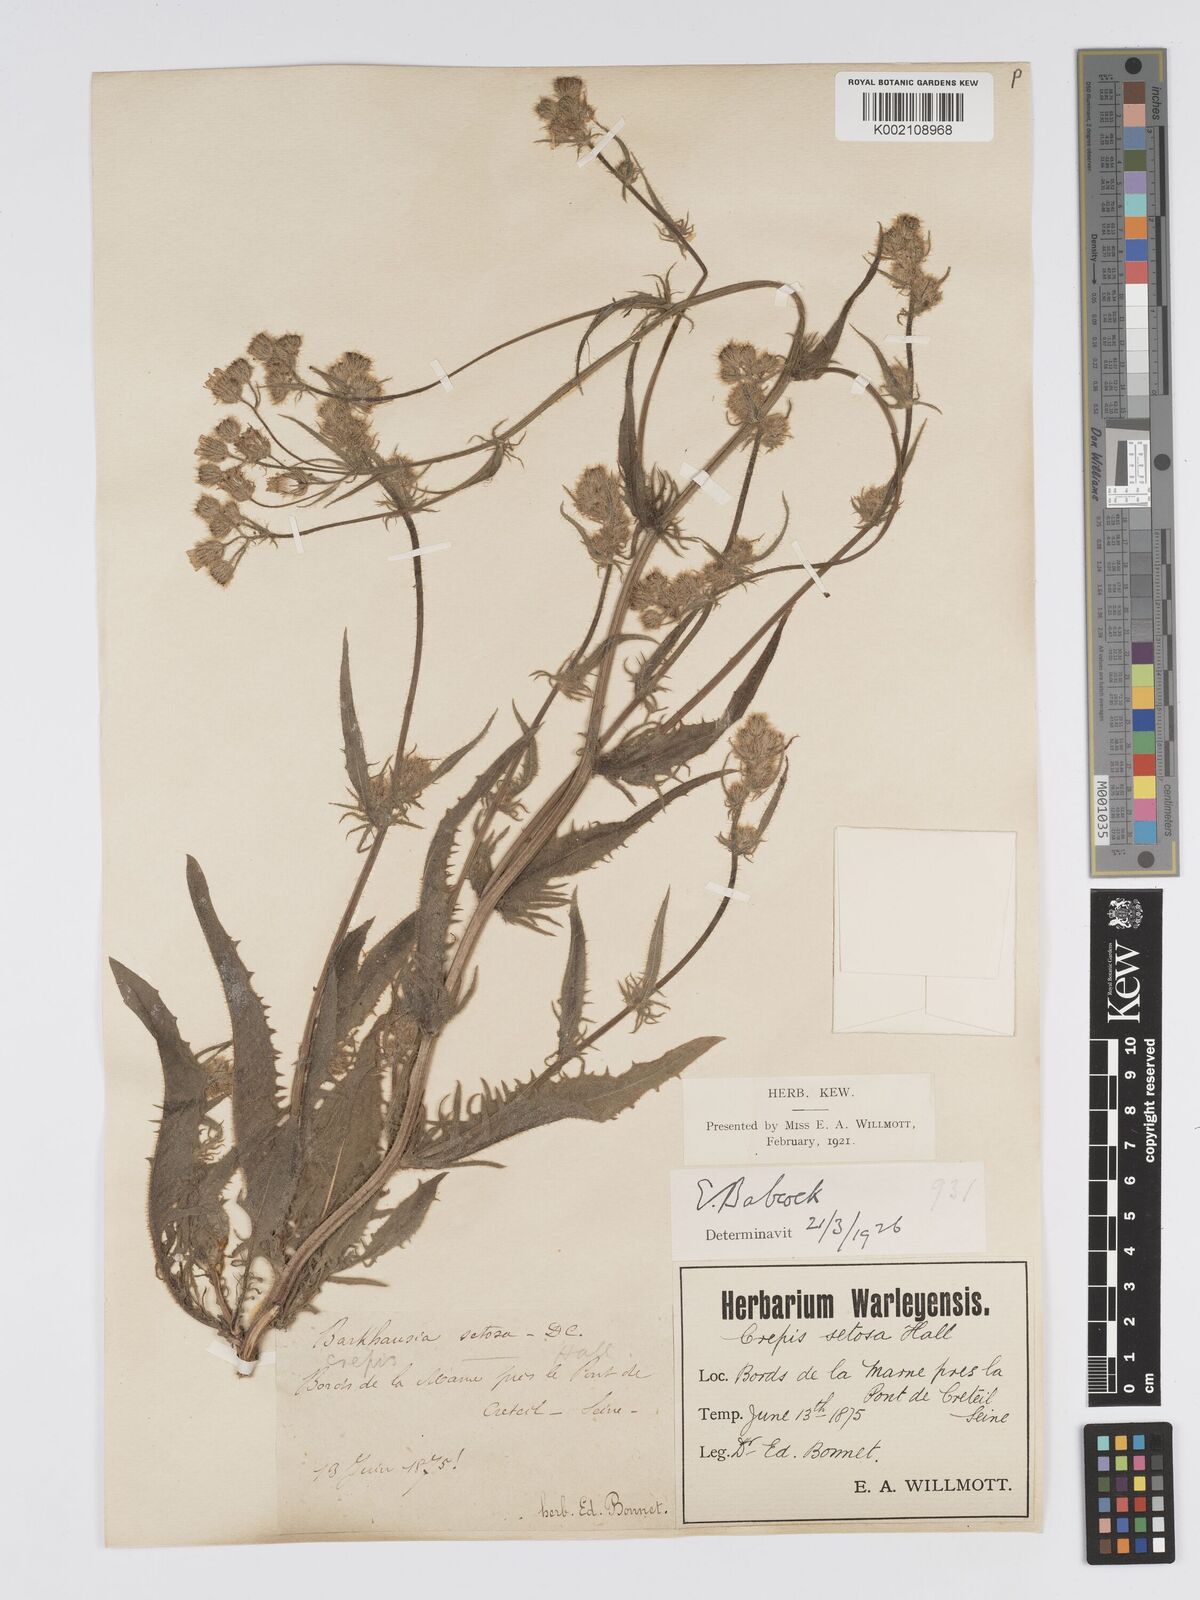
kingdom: Plantae
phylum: Tracheophyta
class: Magnoliopsida
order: Asterales
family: Asteraceae
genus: Crepis
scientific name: Crepis setosa
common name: Bristly hawk's-beard
